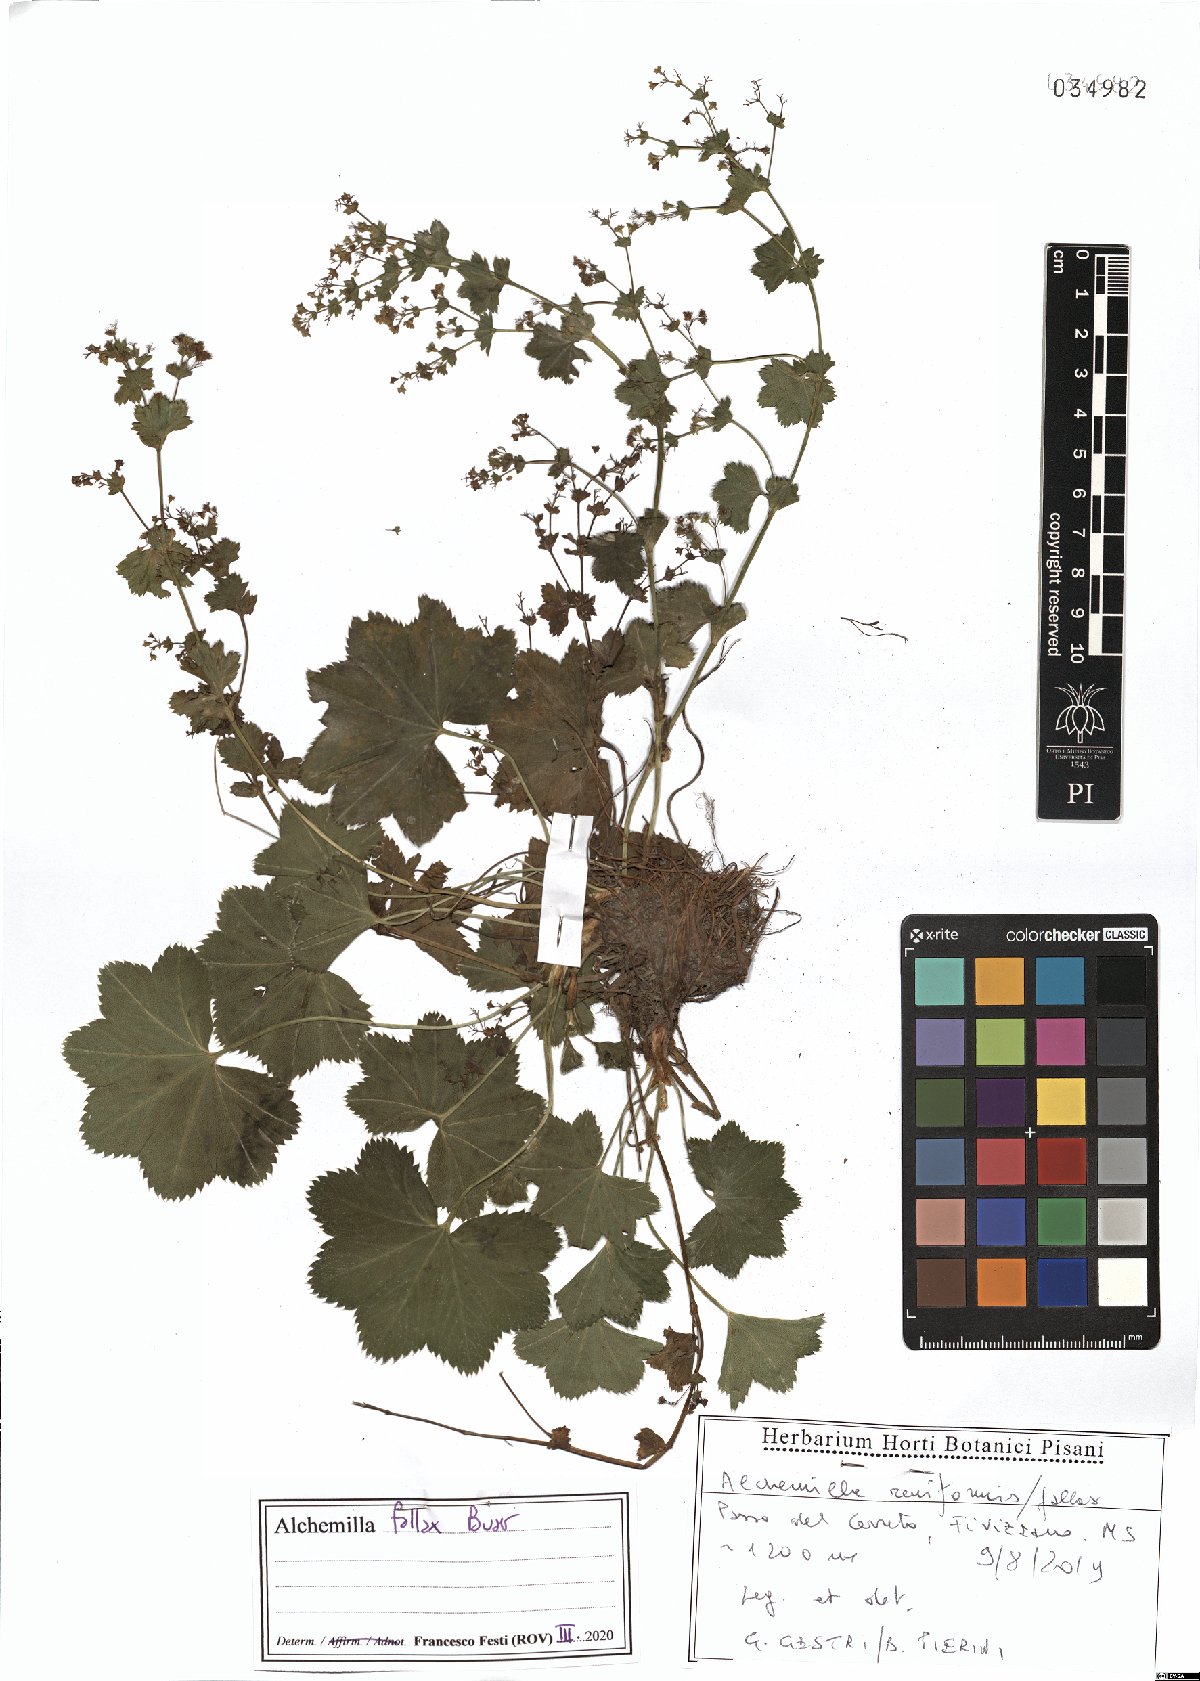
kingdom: Plantae
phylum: Tracheophyta
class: Magnoliopsida
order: Rosales
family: Rosaceae
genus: Alchemilla
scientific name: Alchemilla fallax
